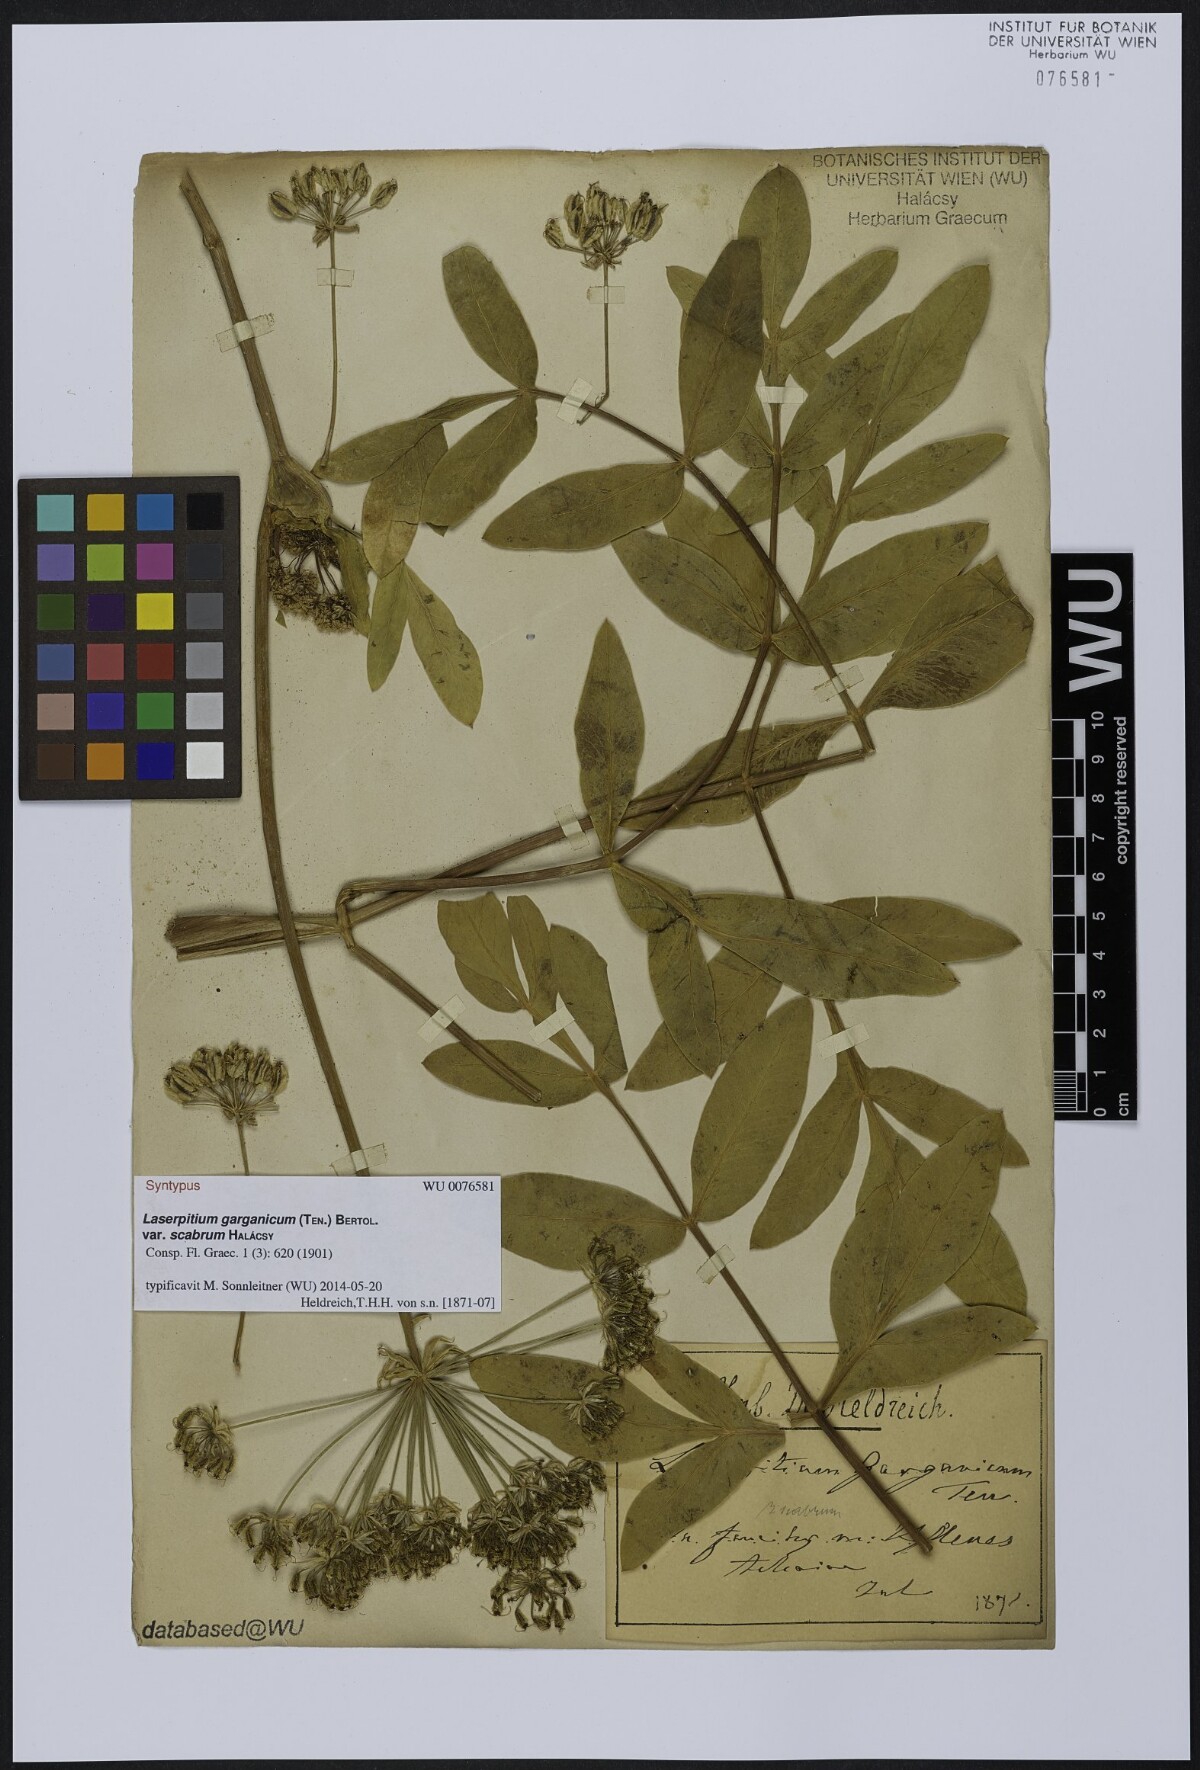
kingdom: Plantae
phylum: Tracheophyta
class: Magnoliopsida
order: Apiales
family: Apiaceae
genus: Siler
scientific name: Siler zernyi
